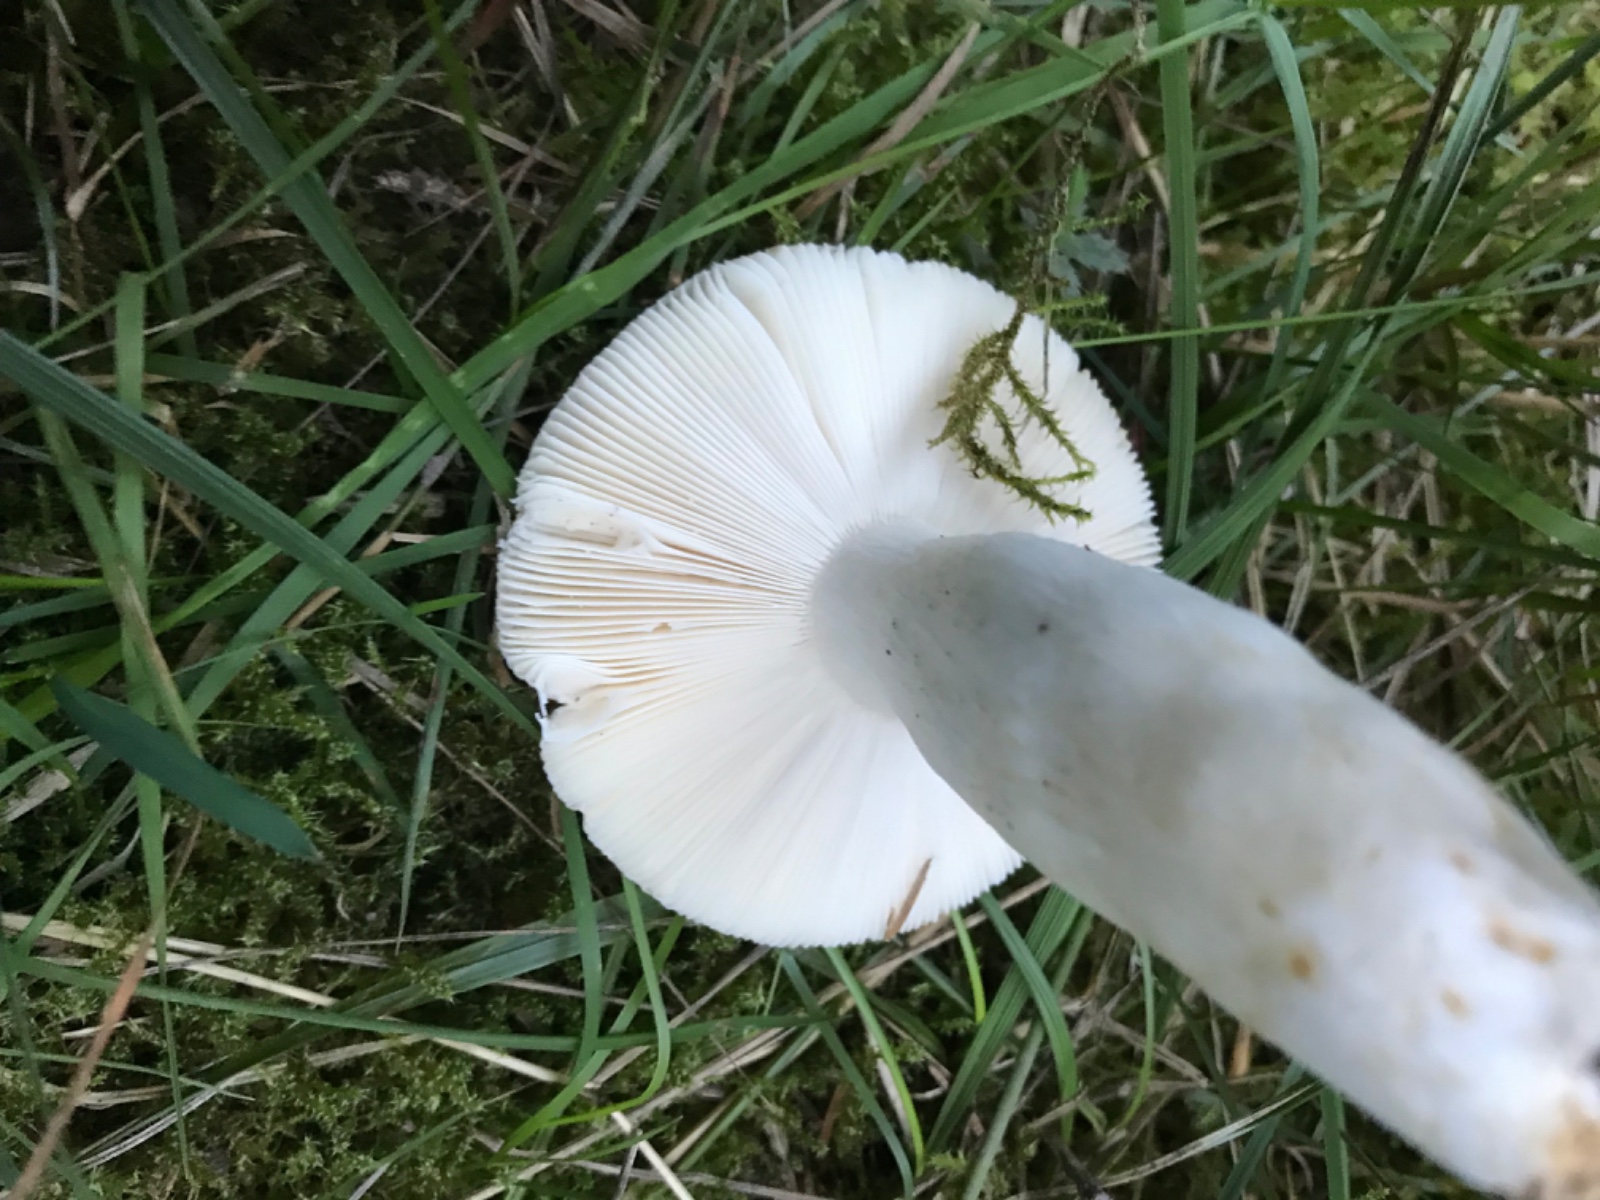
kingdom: Fungi
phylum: Basidiomycota
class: Agaricomycetes
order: Russulales
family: Russulaceae
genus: Russula
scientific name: Russula aeruginea
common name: græsgrøn skørhat
